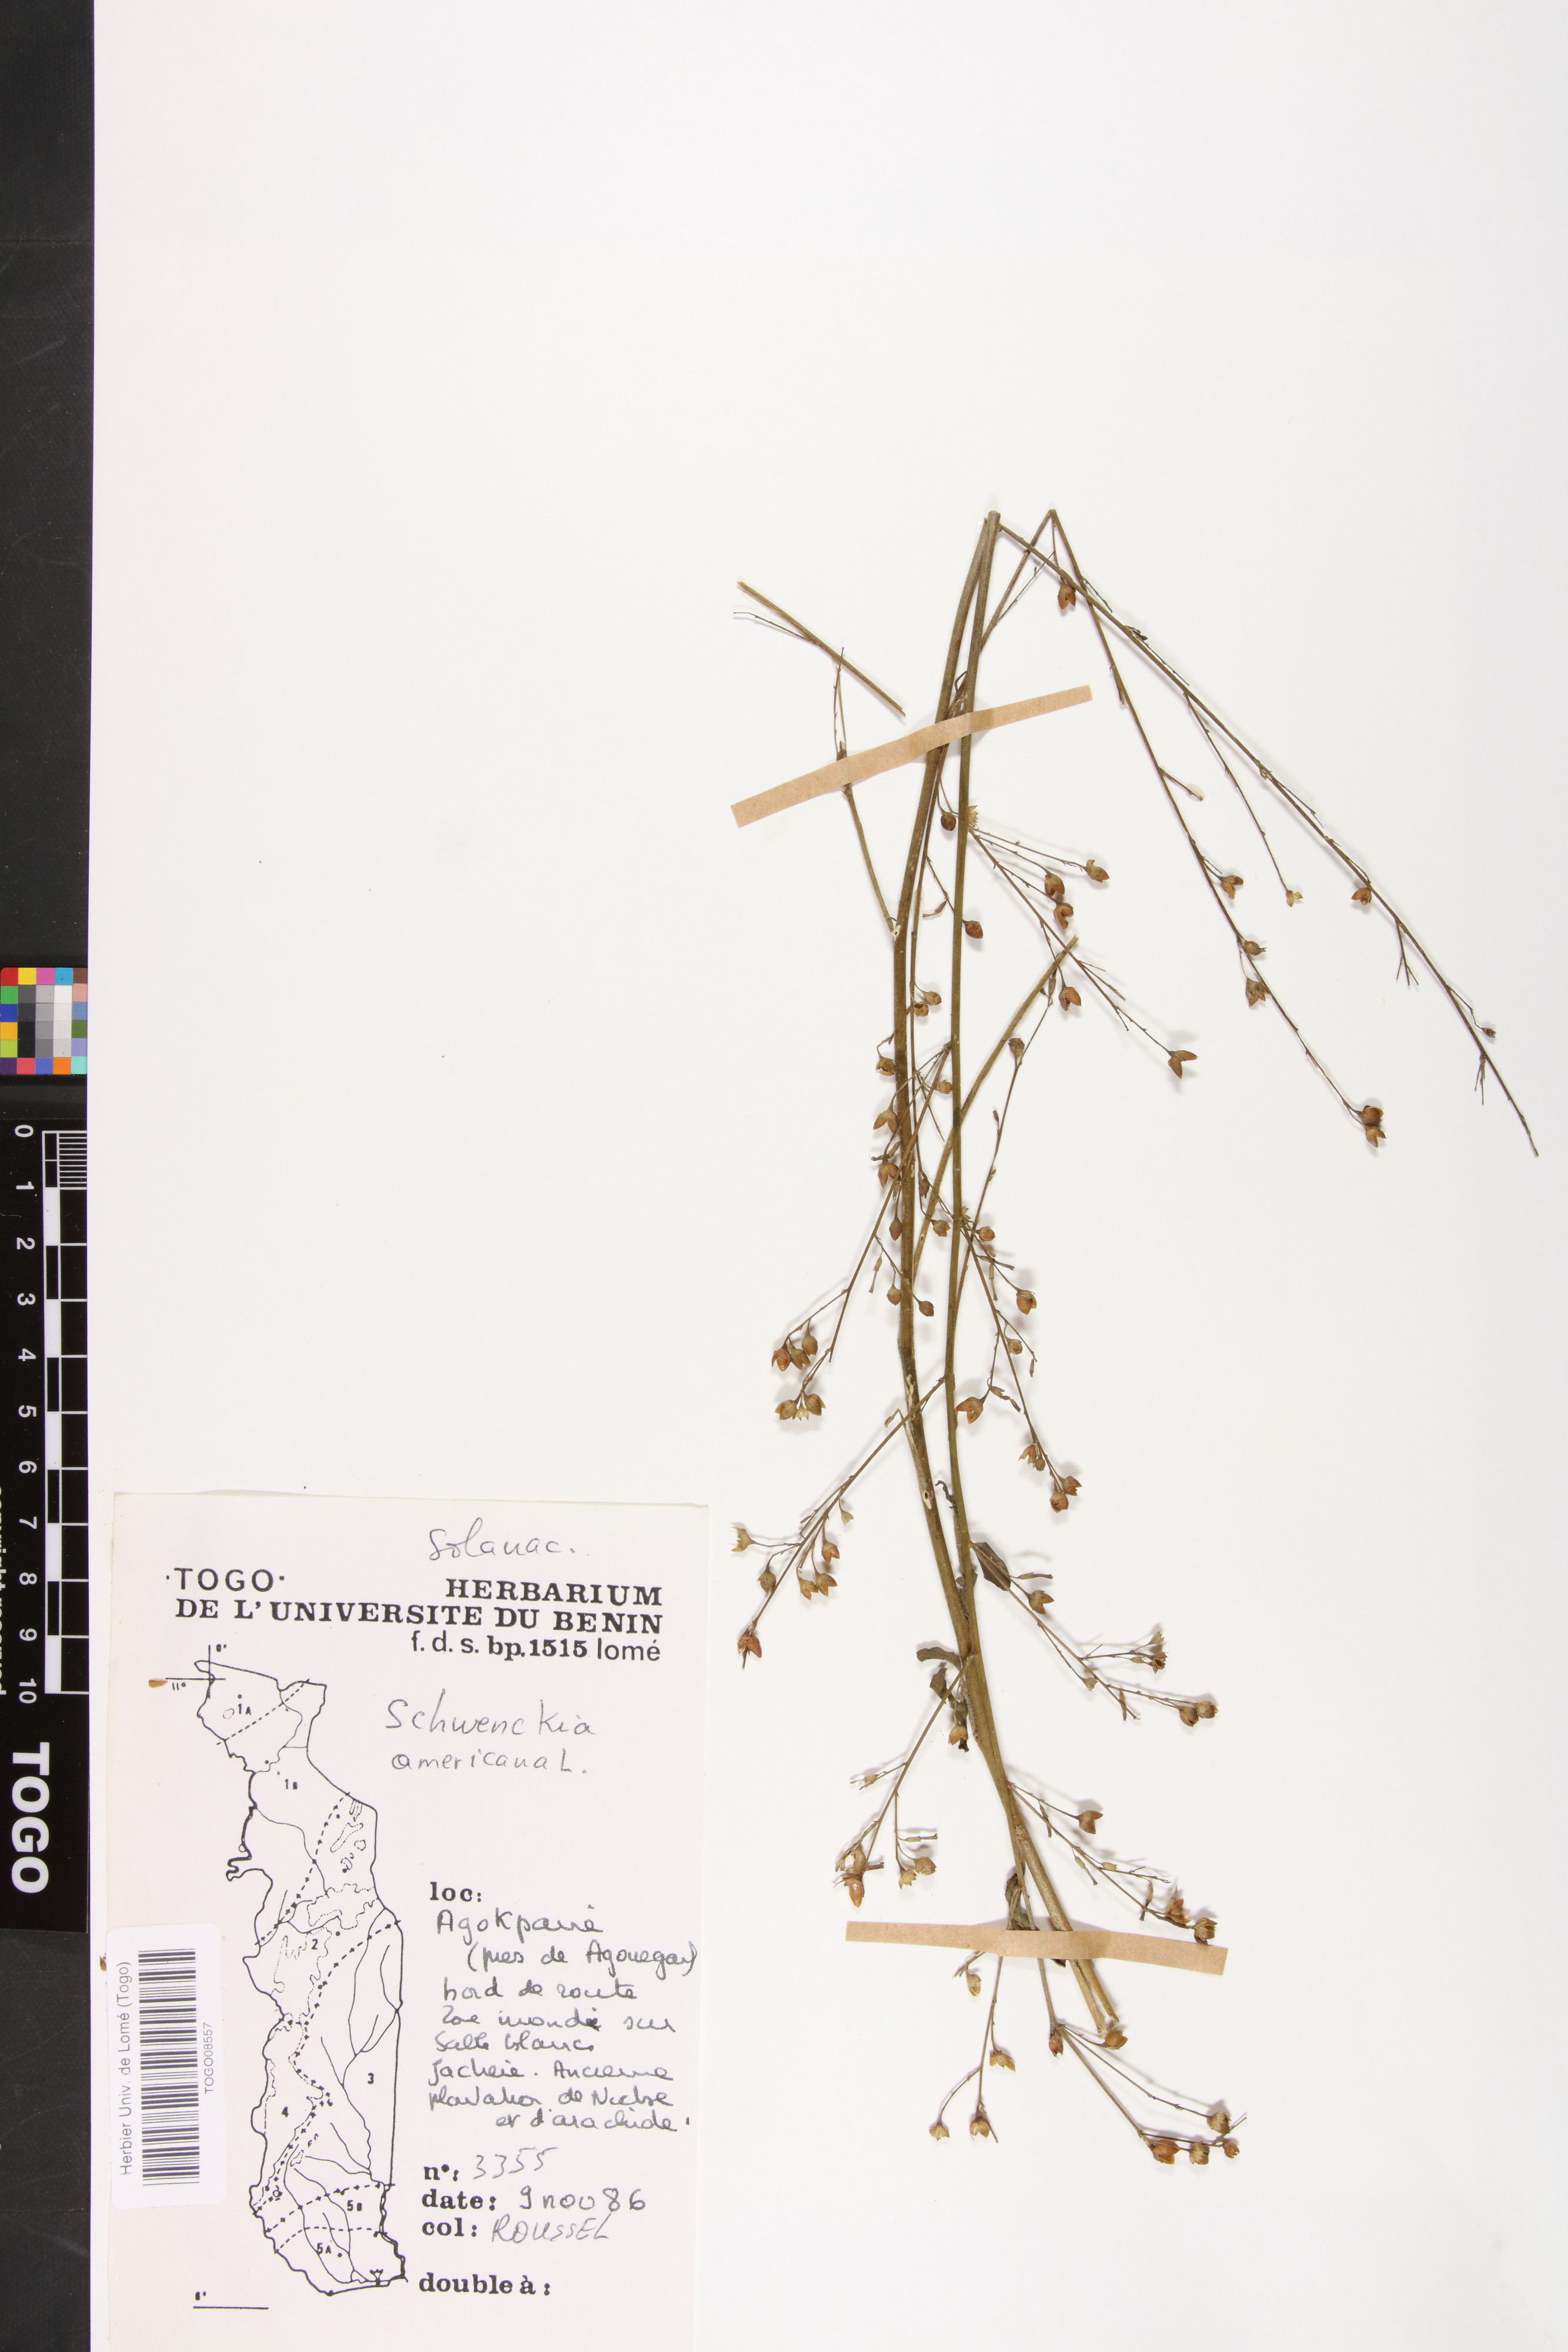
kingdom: Plantae
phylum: Tracheophyta
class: Magnoliopsida
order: Solanales
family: Solanaceae
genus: Schwenckia
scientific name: Schwenckia americana
